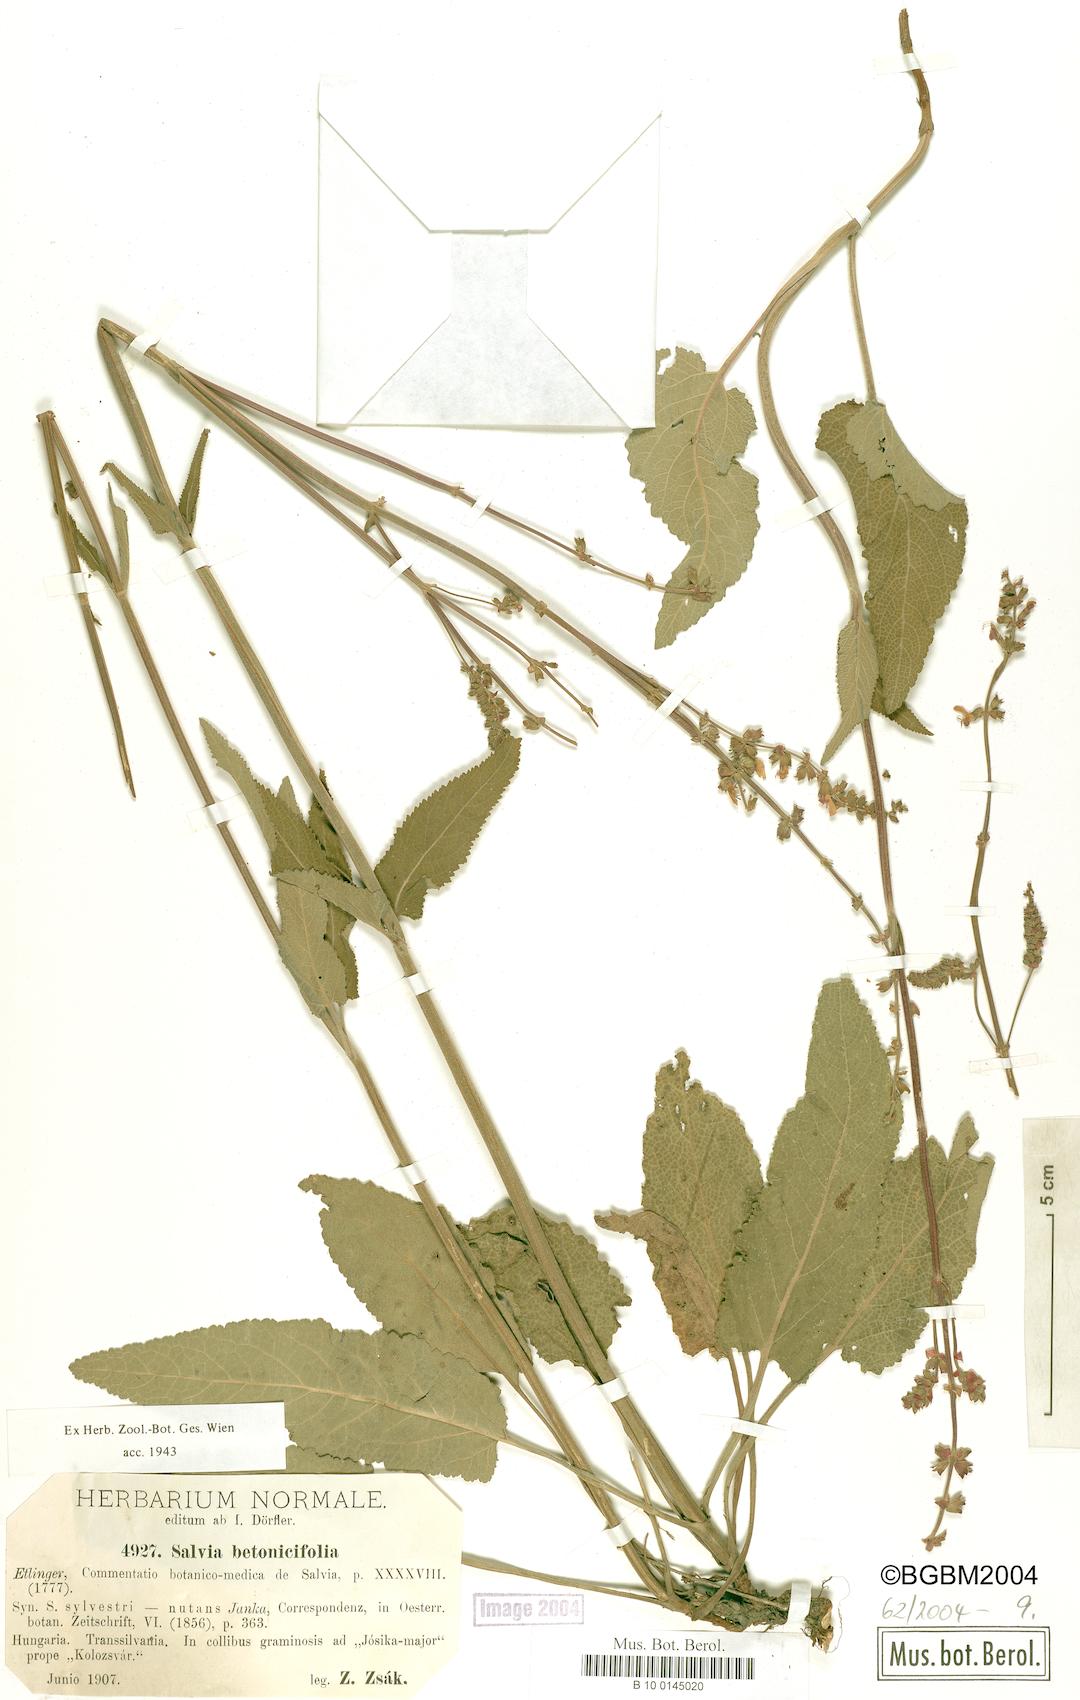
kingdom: Plantae
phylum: Tracheophyta
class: Magnoliopsida
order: Lamiales
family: Lamiaceae
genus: Salvia
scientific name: Salvia nutans
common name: Nodding sage
